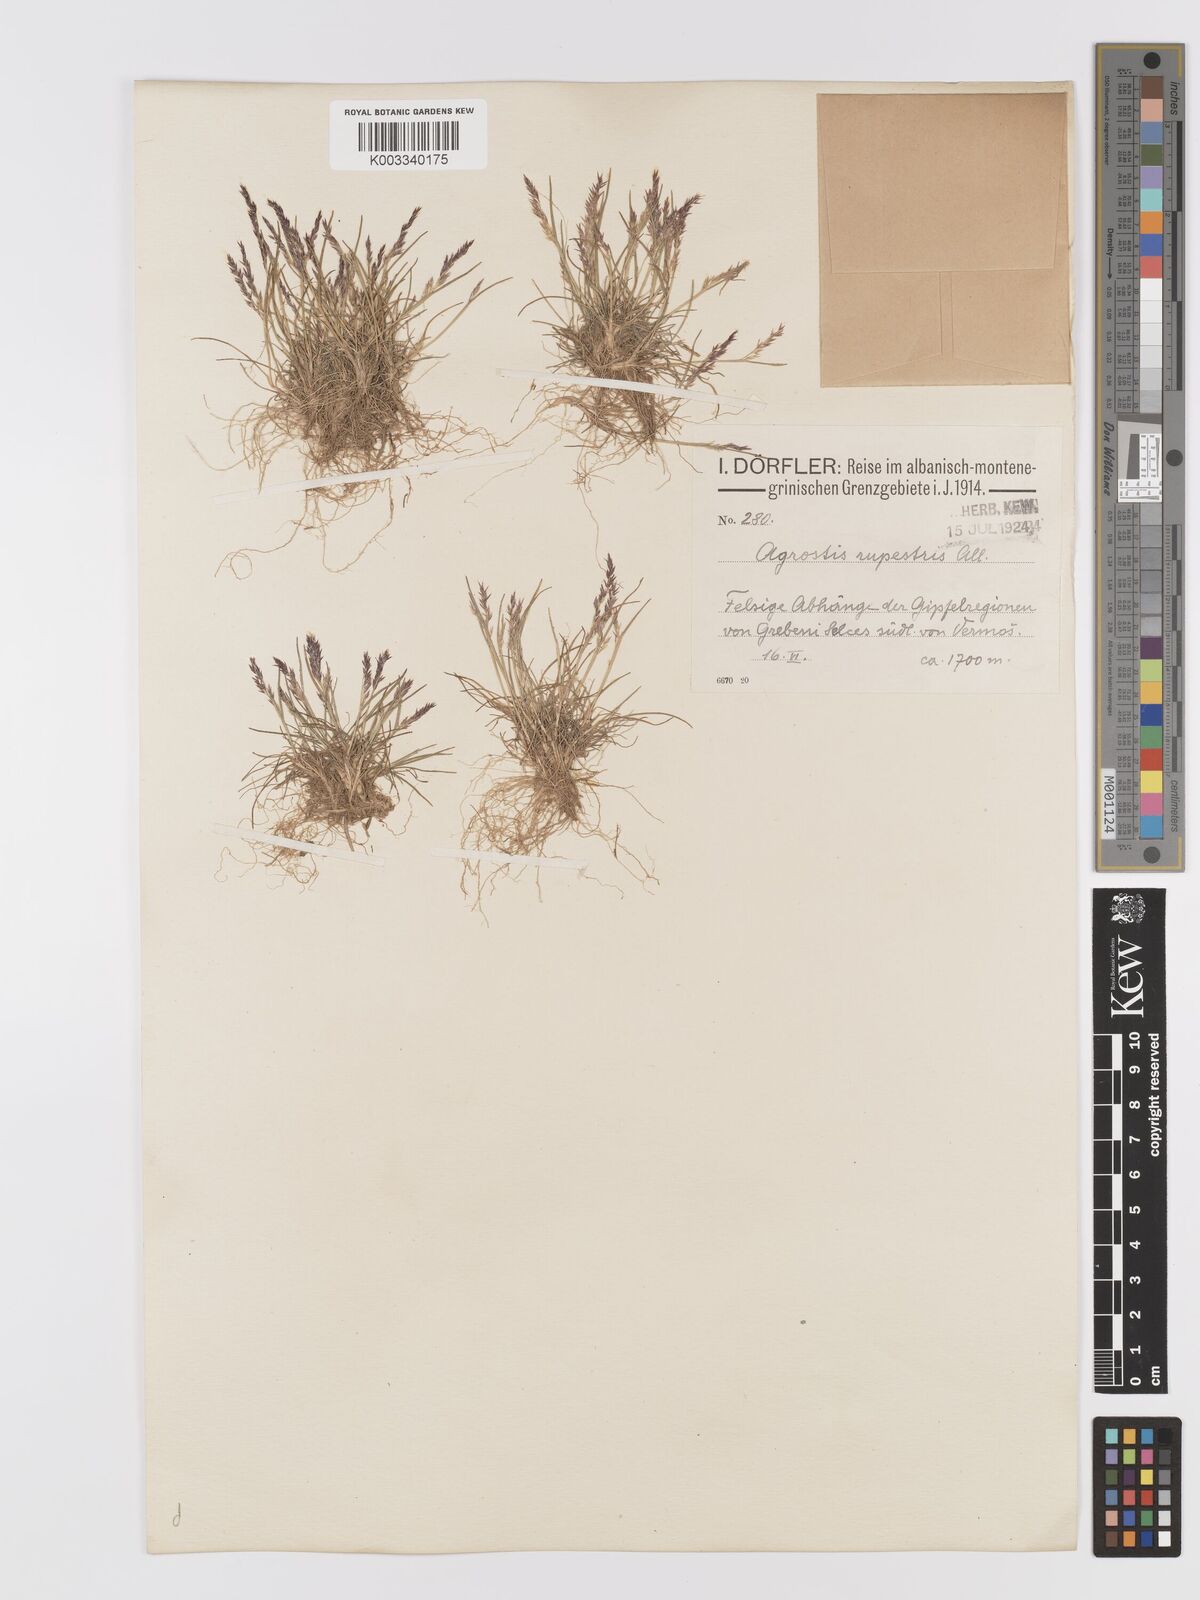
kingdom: Plantae
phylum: Tracheophyta
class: Liliopsida
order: Poales
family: Poaceae
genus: Agrostis
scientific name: Agrostis rupestris
